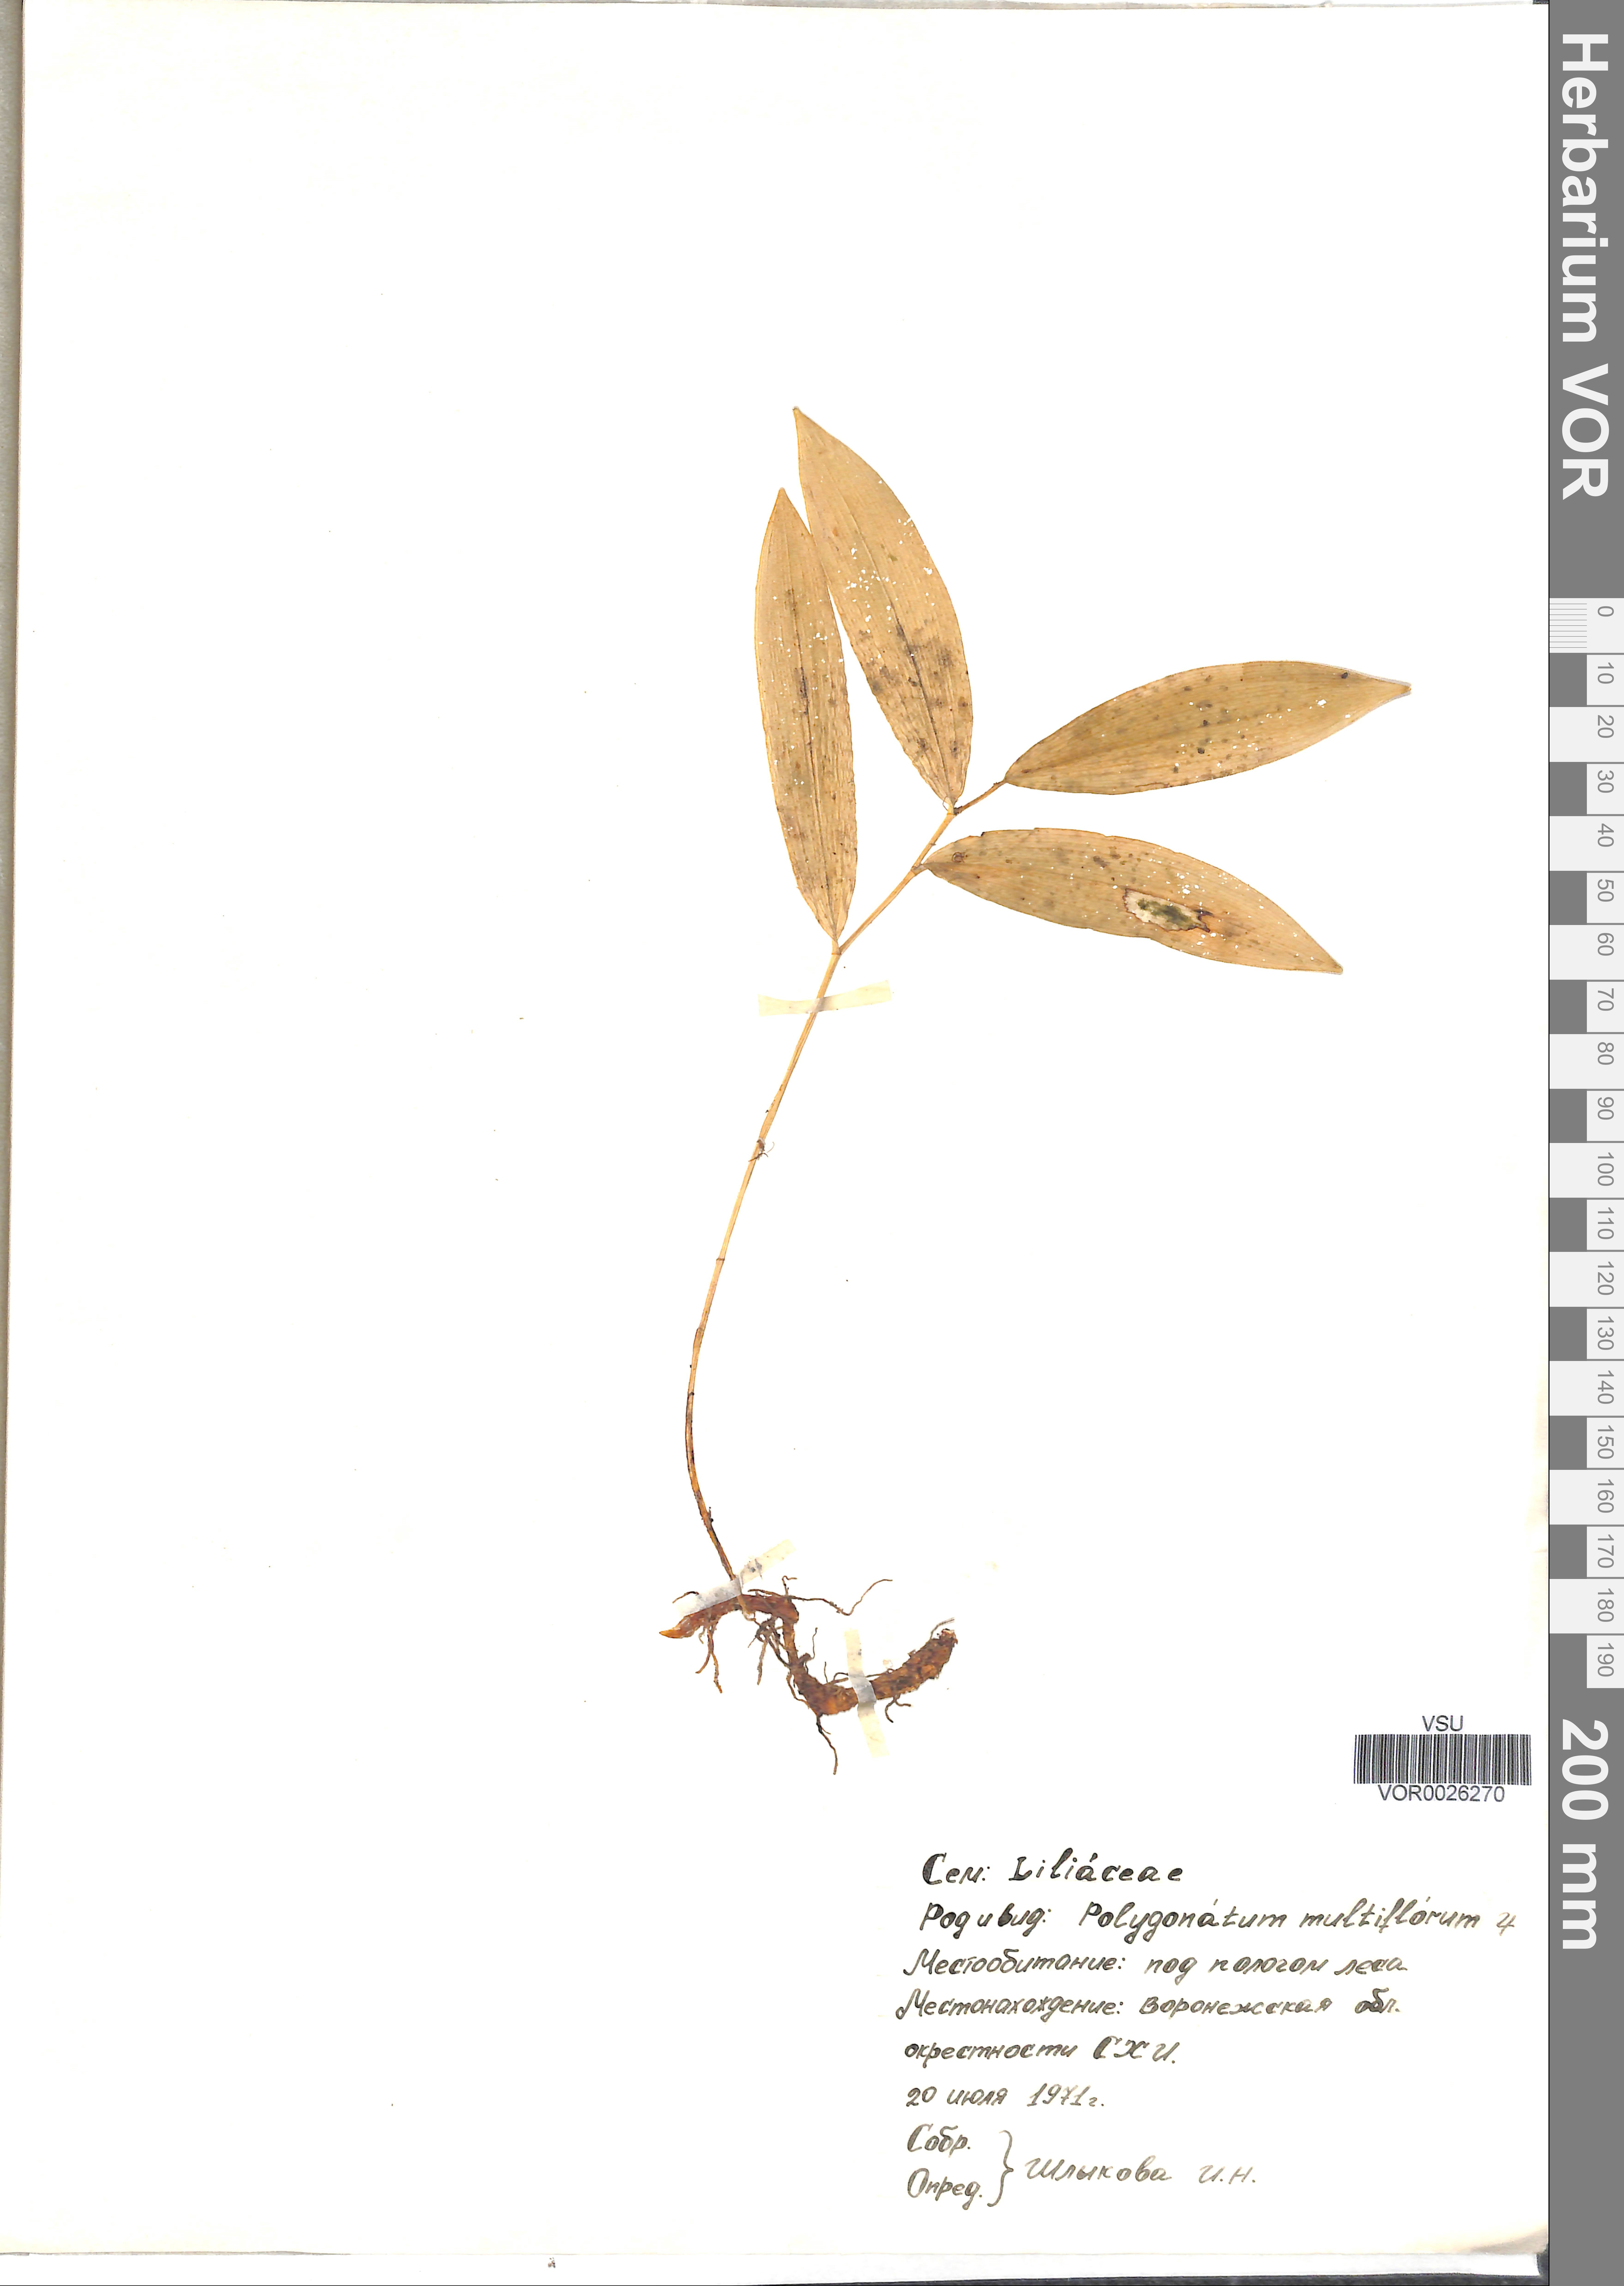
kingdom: Plantae
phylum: Tracheophyta
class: Liliopsida
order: Asparagales
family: Asparagaceae
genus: Polygonatum
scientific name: Polygonatum odoratum
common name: Angular solomon's-seal
